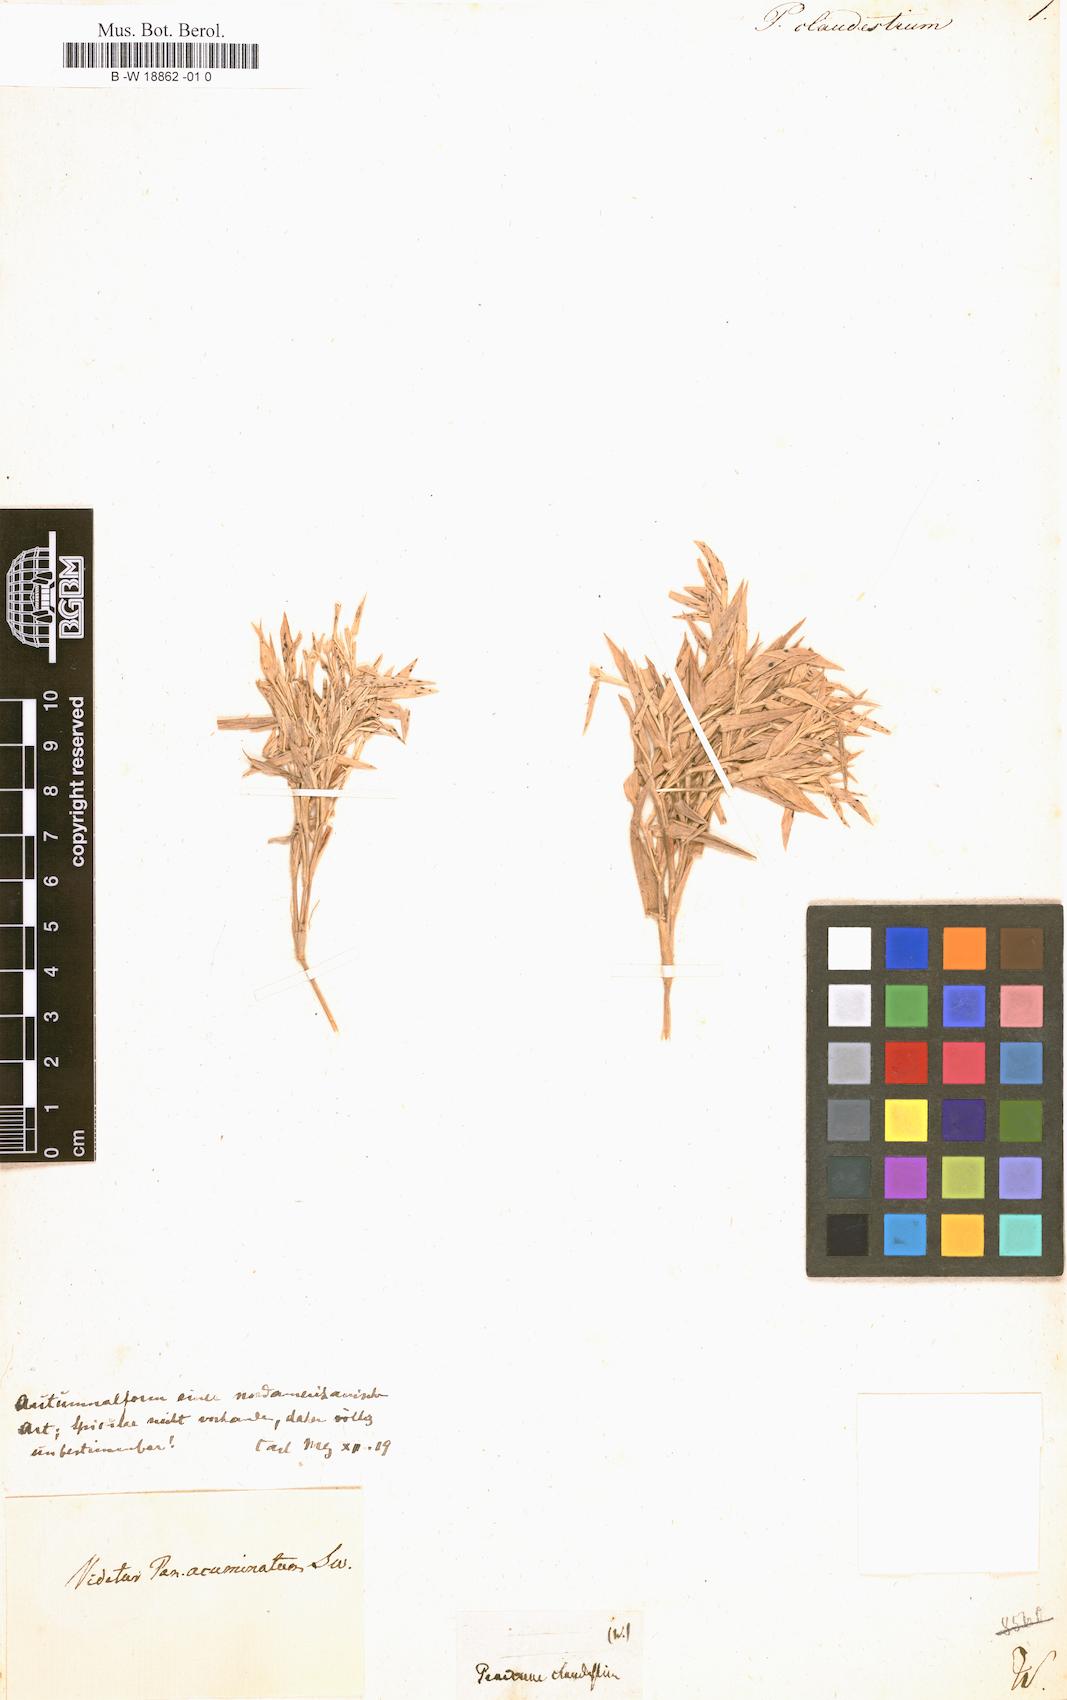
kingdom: Plantae
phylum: Tracheophyta
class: Liliopsida
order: Poales
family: Poaceae
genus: Panicum
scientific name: Panicum clandestinum
